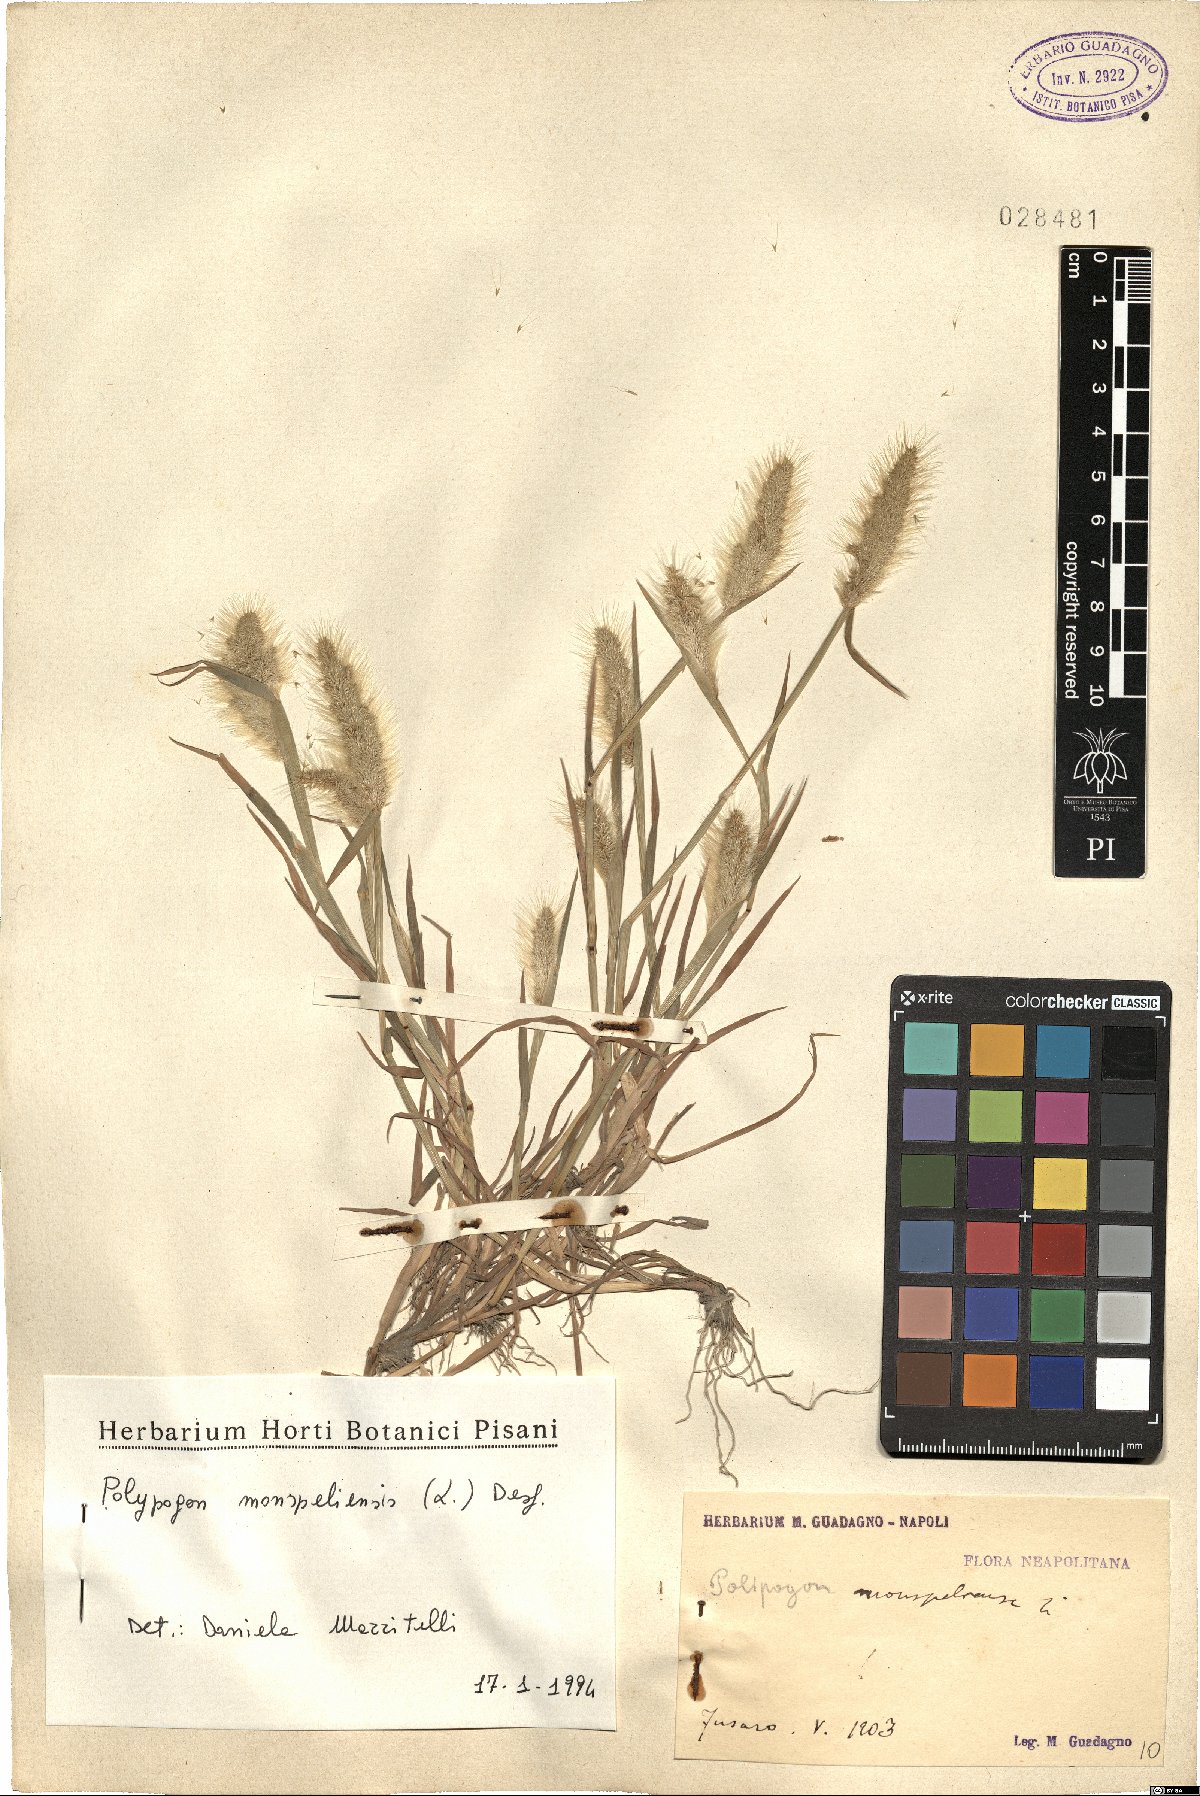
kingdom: Plantae
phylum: Tracheophyta
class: Liliopsida
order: Poales
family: Poaceae
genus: Polypogon
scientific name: Polypogon monspeliensis
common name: Annual rabbitsfoot grass
